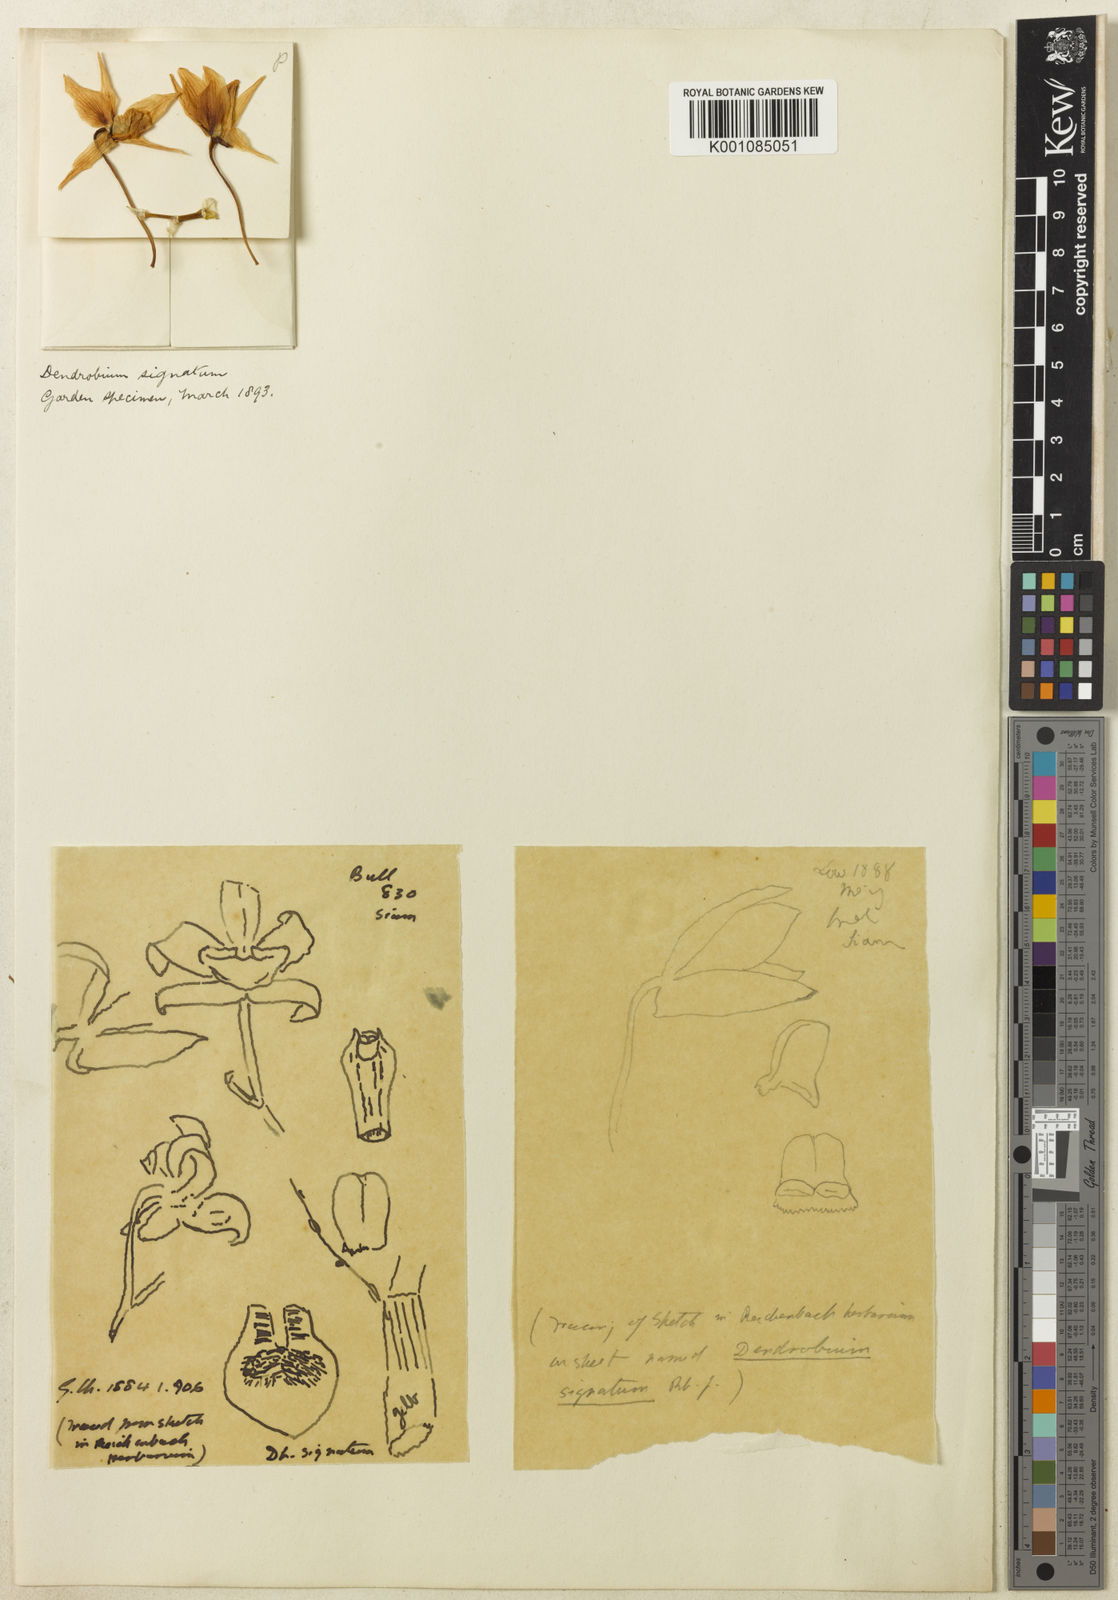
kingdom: Plantae
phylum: Tracheophyta
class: Liliopsida
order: Asparagales
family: Orchidaceae
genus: Dendrobium
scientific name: Dendrobium signatum
